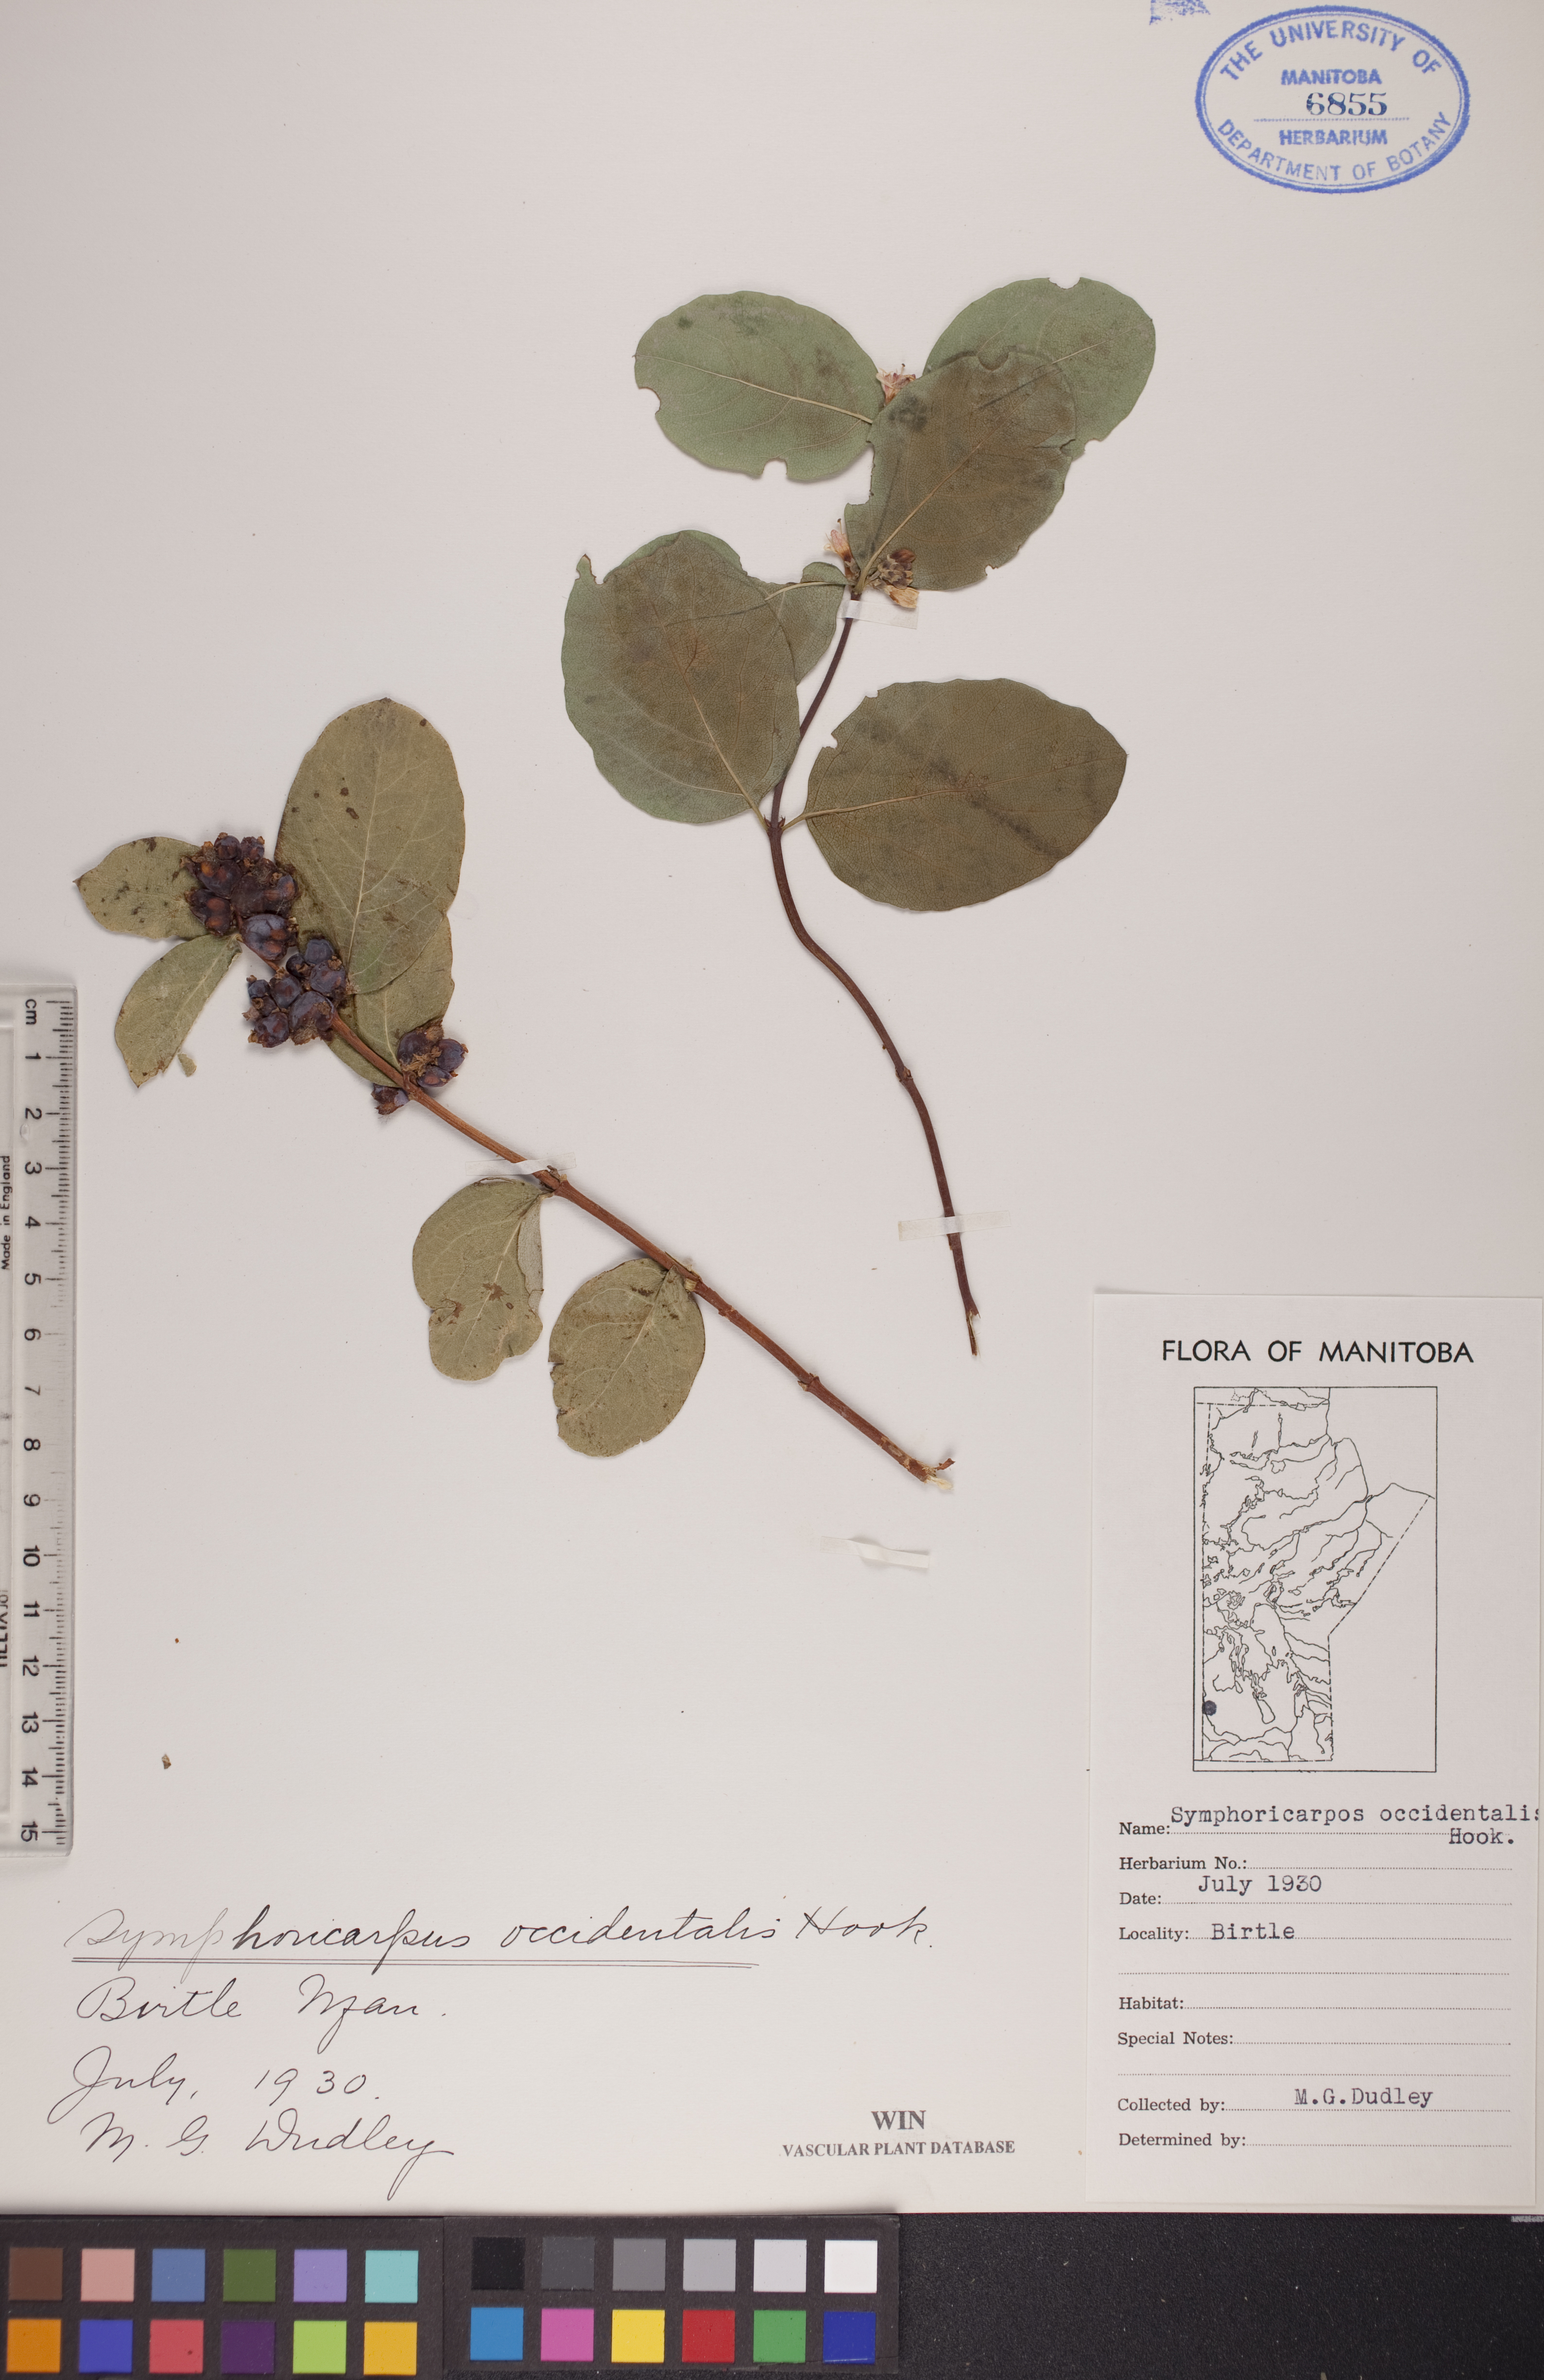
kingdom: Plantae
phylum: Tracheophyta
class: Magnoliopsida
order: Dipsacales
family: Caprifoliaceae
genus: Symphoricarpos
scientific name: Symphoricarpos occidentalis
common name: Wolfberry
